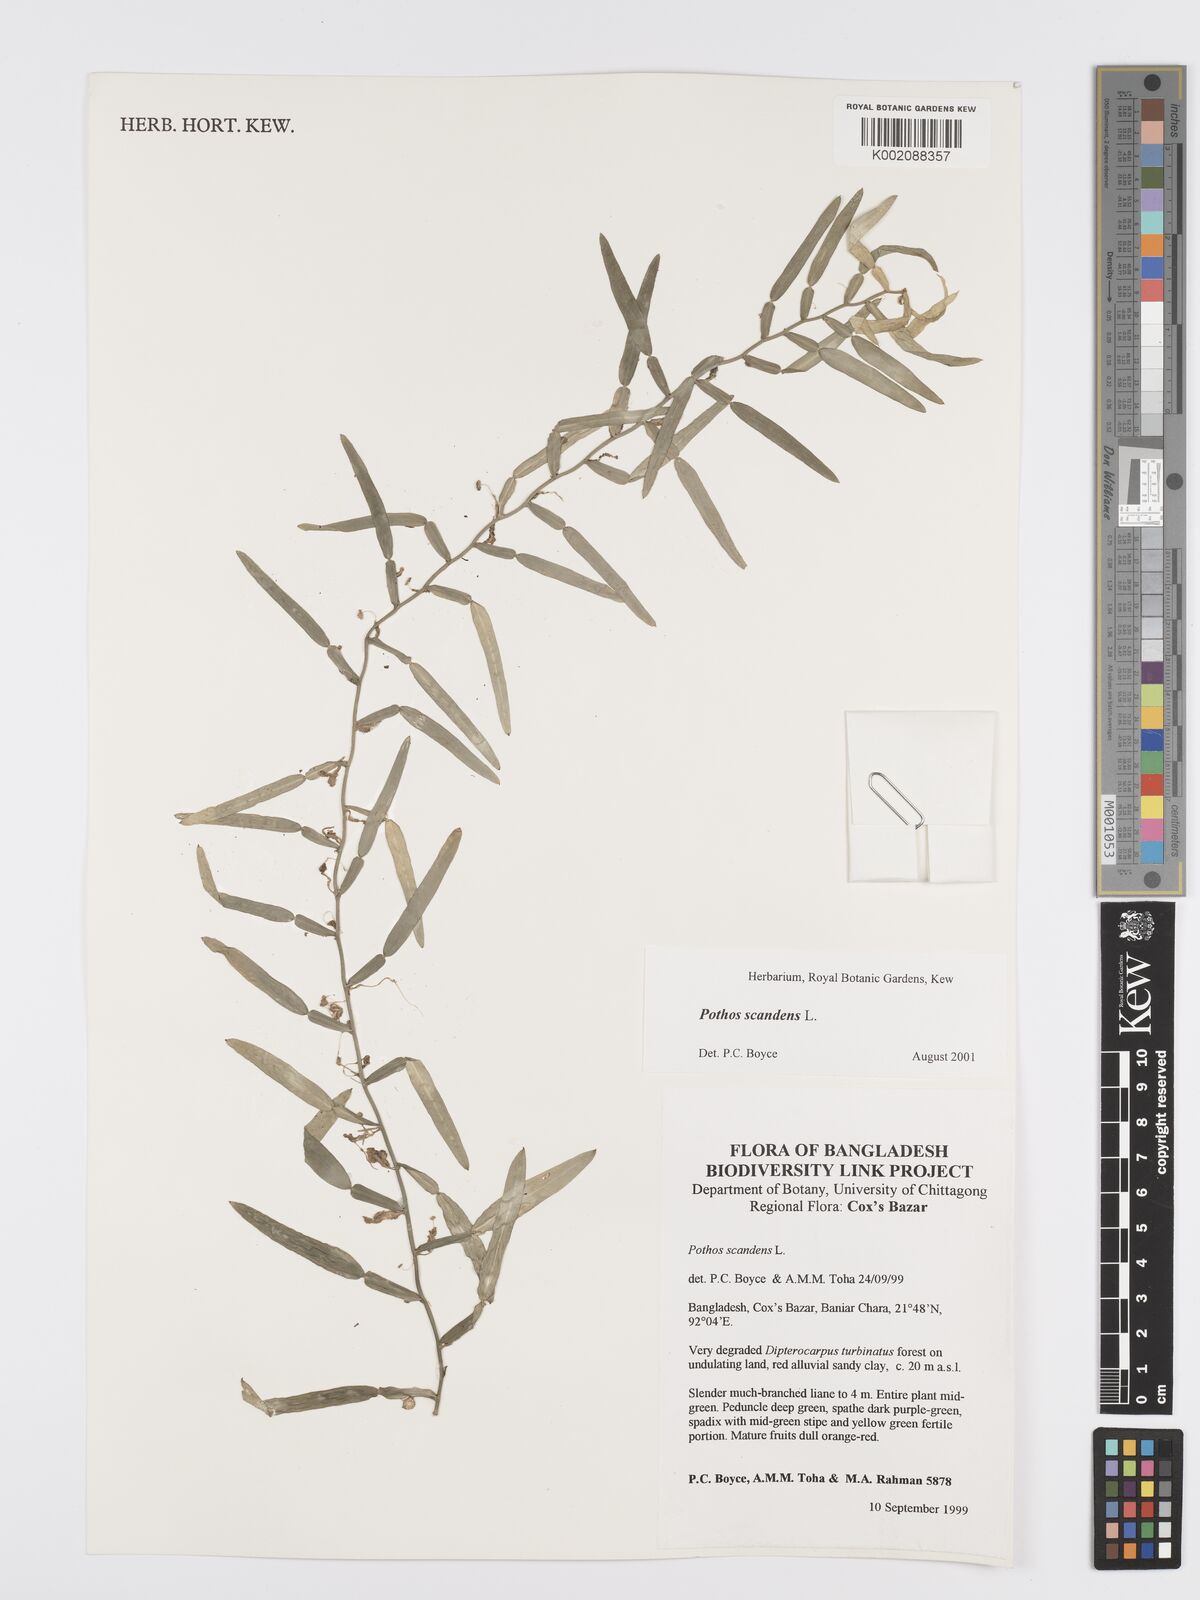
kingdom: Plantae
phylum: Tracheophyta
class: Liliopsida
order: Alismatales
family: Araceae
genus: Pothos
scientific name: Pothos scandens
